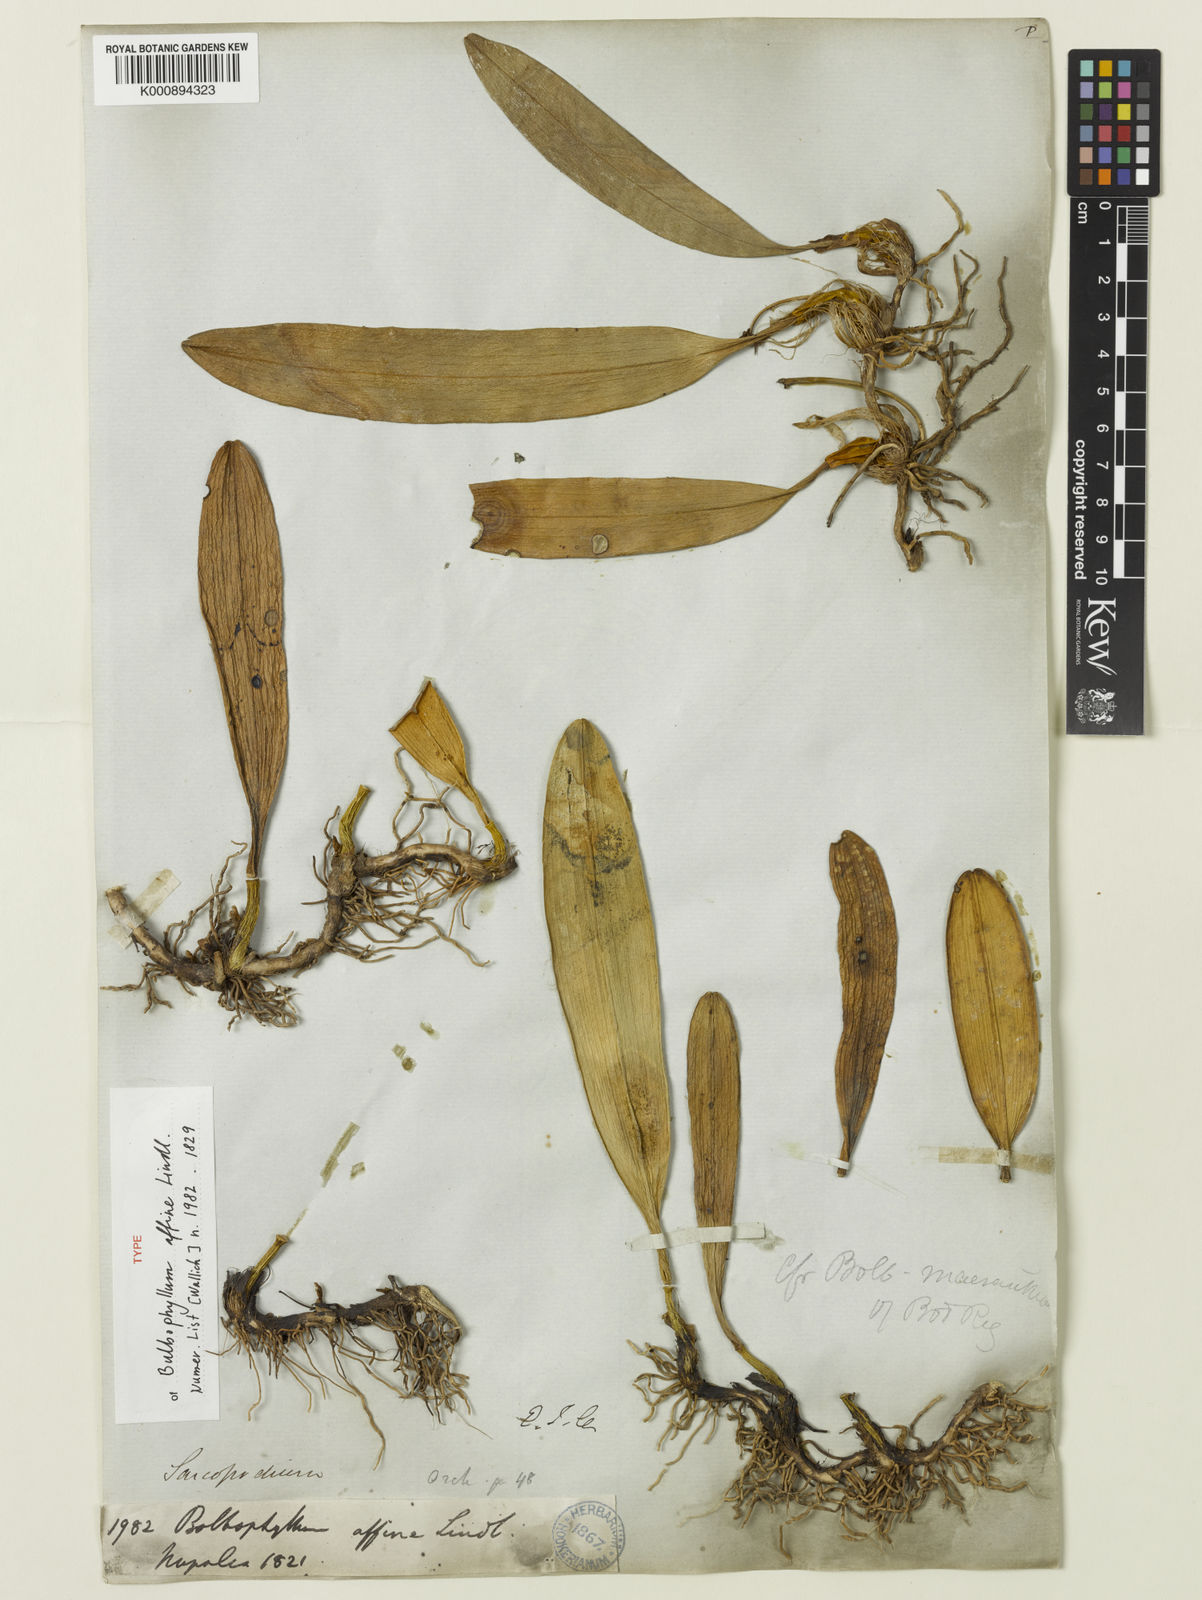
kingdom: Plantae
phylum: Tracheophyta
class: Liliopsida
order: Asparagales
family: Orchidaceae
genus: Bulbophyllum
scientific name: Bulbophyllum affine
